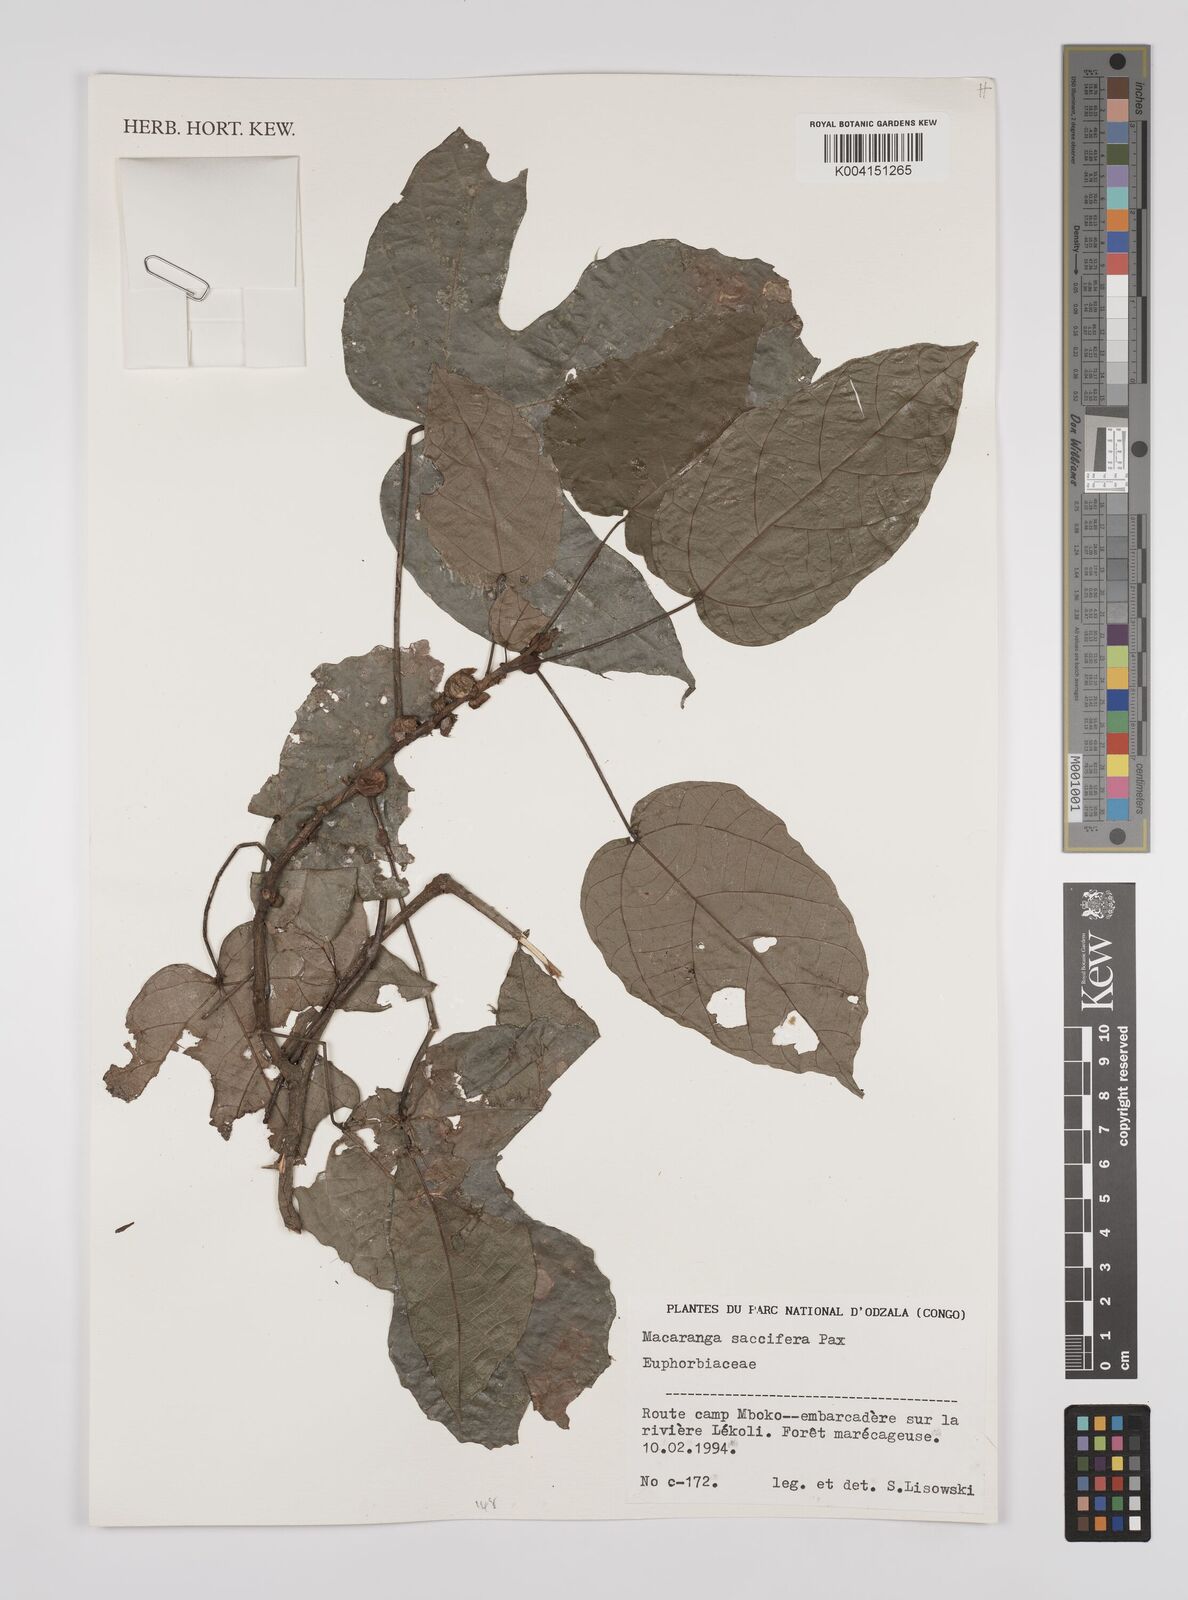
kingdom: Plantae
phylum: Tracheophyta
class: Magnoliopsida
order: Malpighiales
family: Euphorbiaceae
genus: Macaranga
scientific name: Macaranga saccifera
